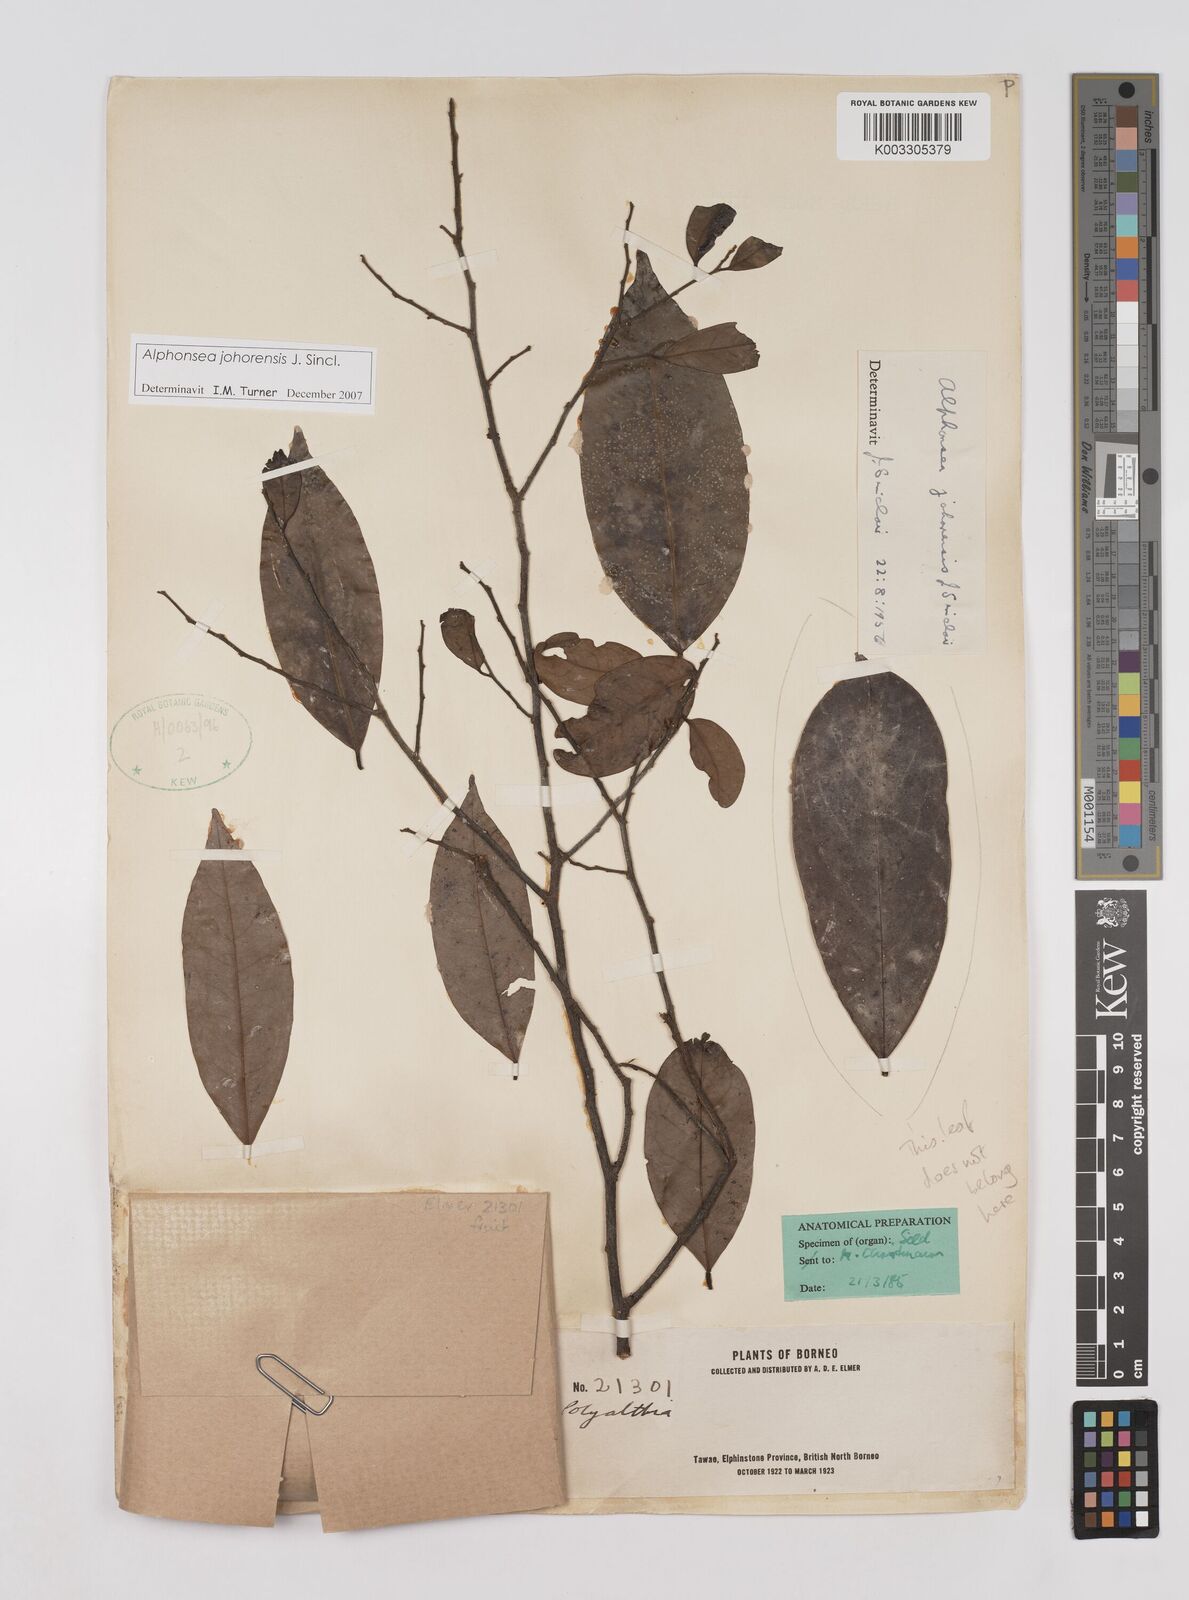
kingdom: Plantae
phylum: Tracheophyta
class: Magnoliopsida
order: Magnoliales
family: Annonaceae
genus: Alphonsea
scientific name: Alphonsea johorensis
